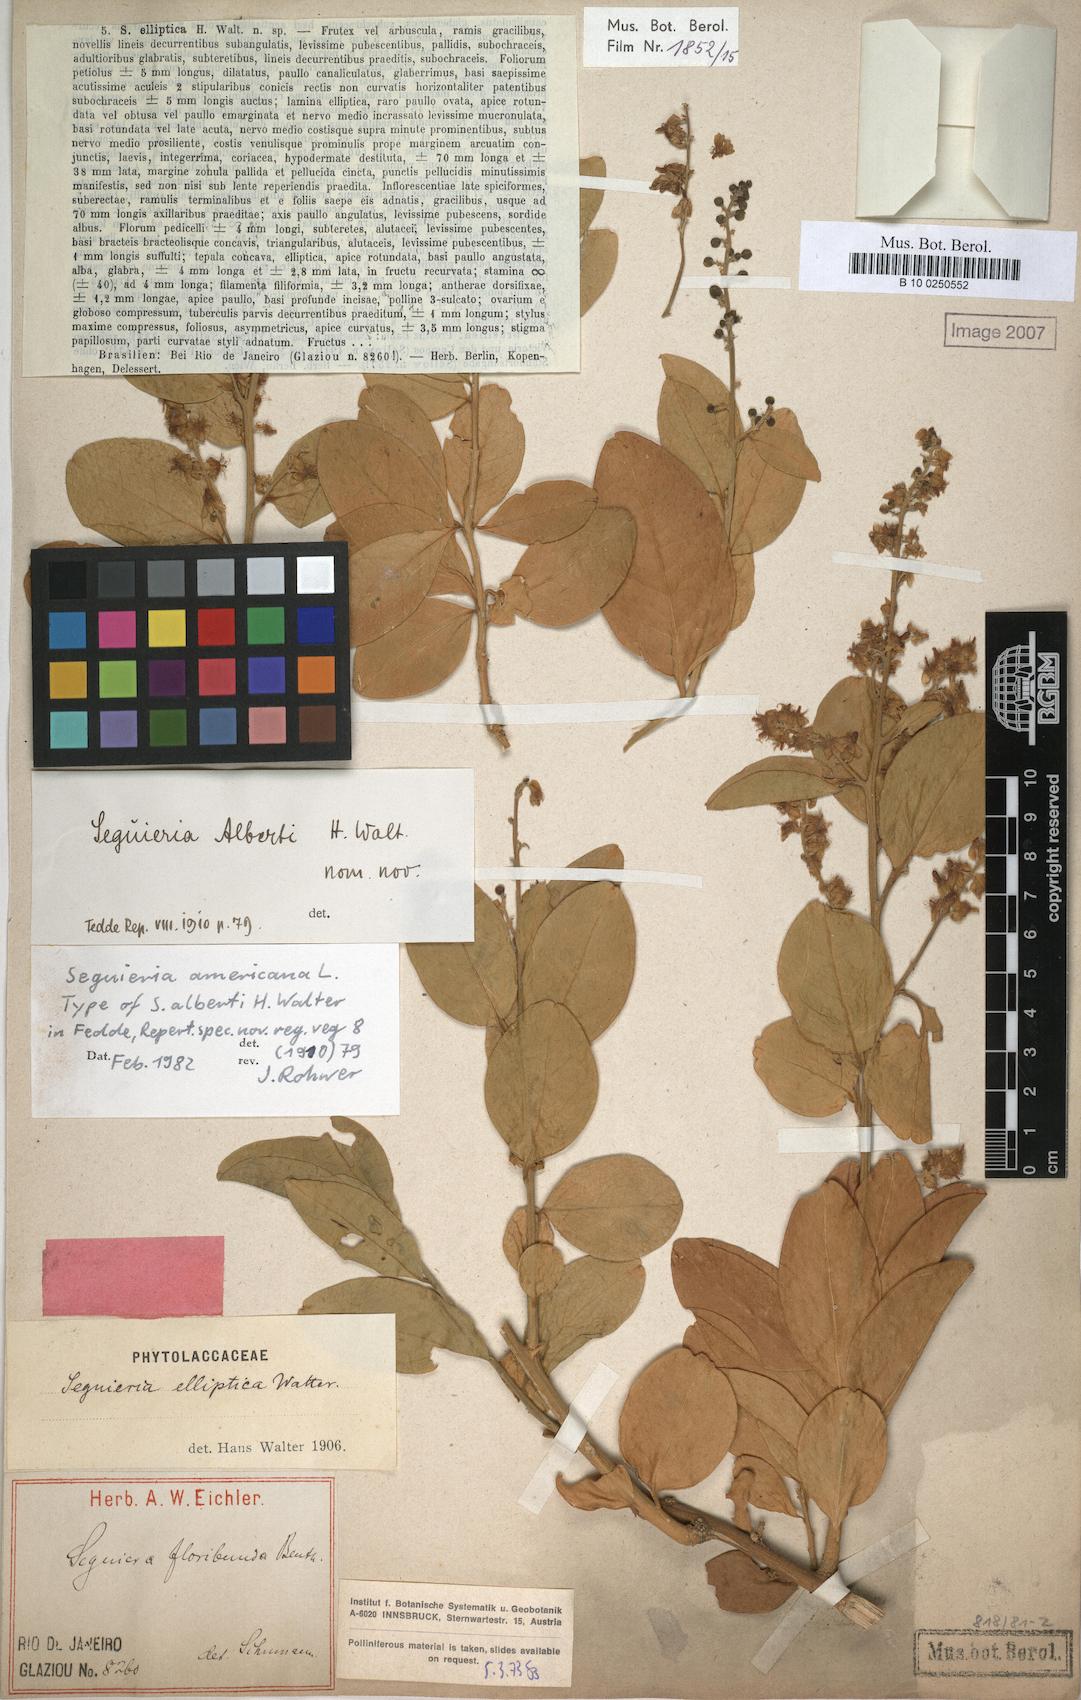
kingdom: Plantae
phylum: Tracheophyta
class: Magnoliopsida
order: Caryophyllales
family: Phytolaccaceae
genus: Seguieria
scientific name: Seguieria americana
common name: American seguieria
